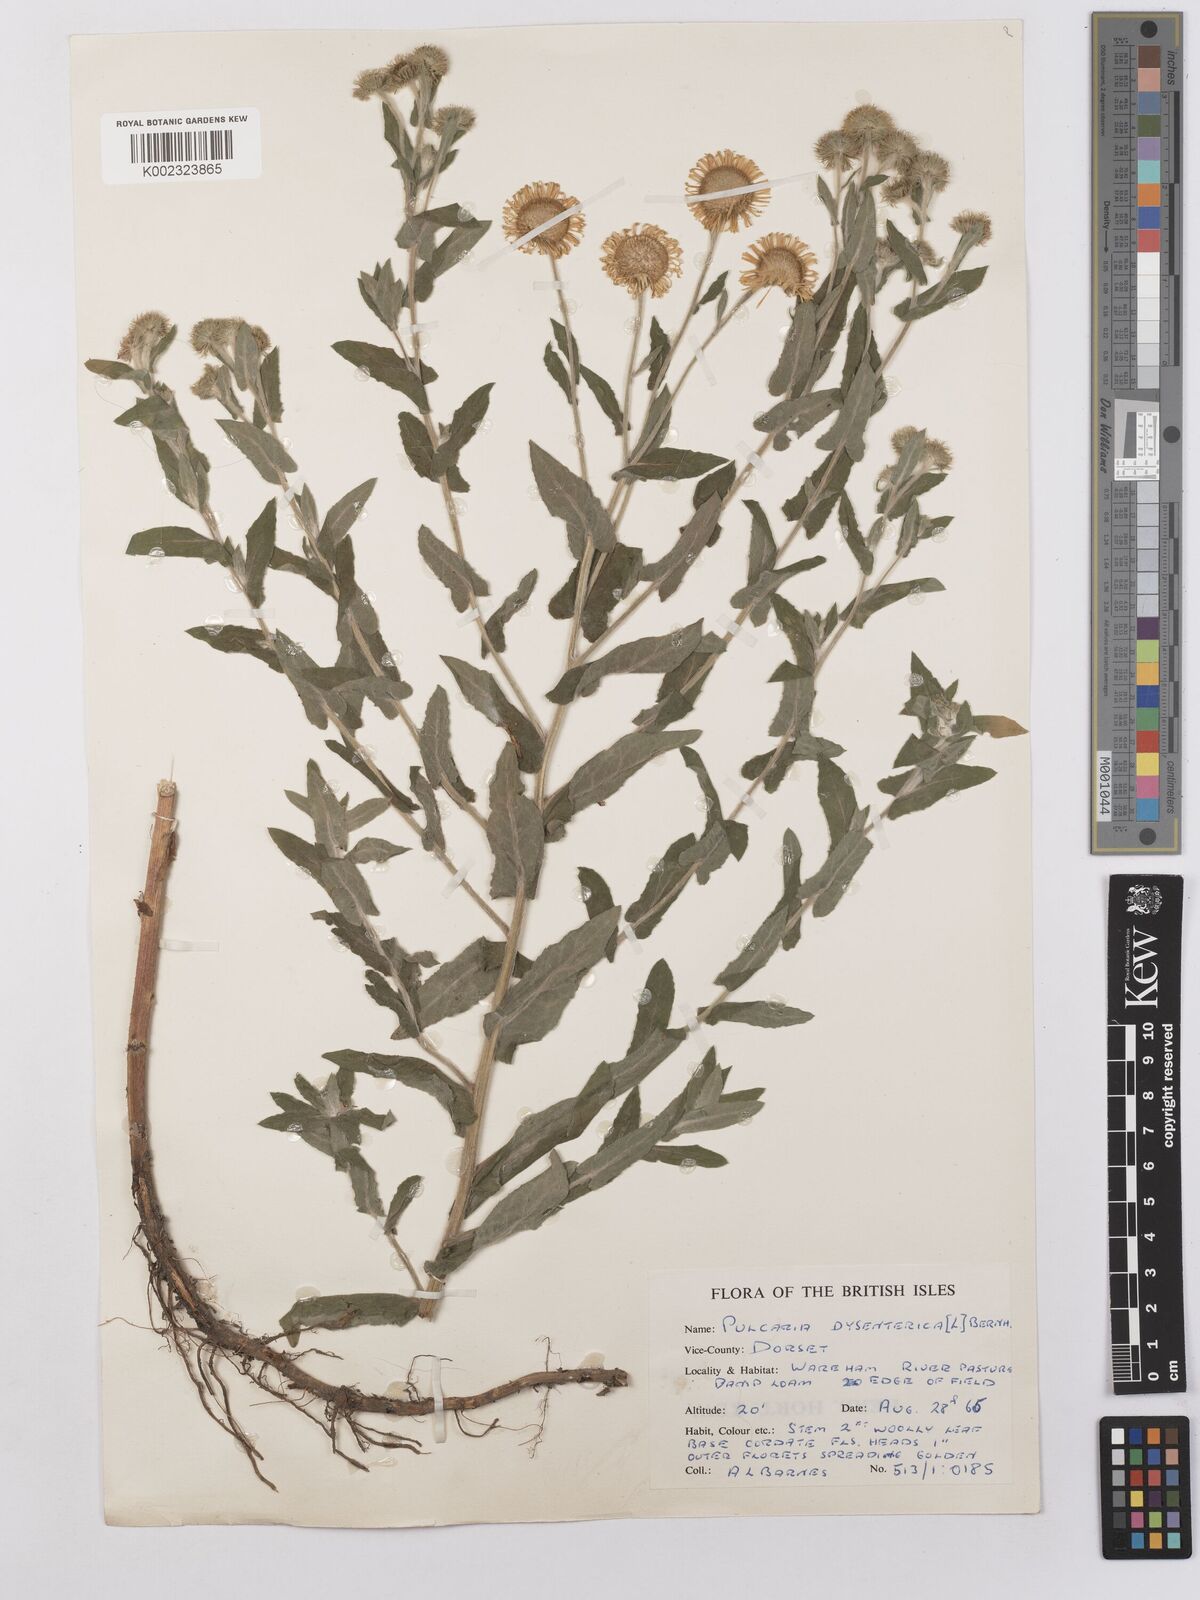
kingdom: Plantae
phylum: Tracheophyta
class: Magnoliopsida
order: Asterales
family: Asteraceae
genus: Pulicaria
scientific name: Pulicaria dysenterica
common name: Common fleabane
